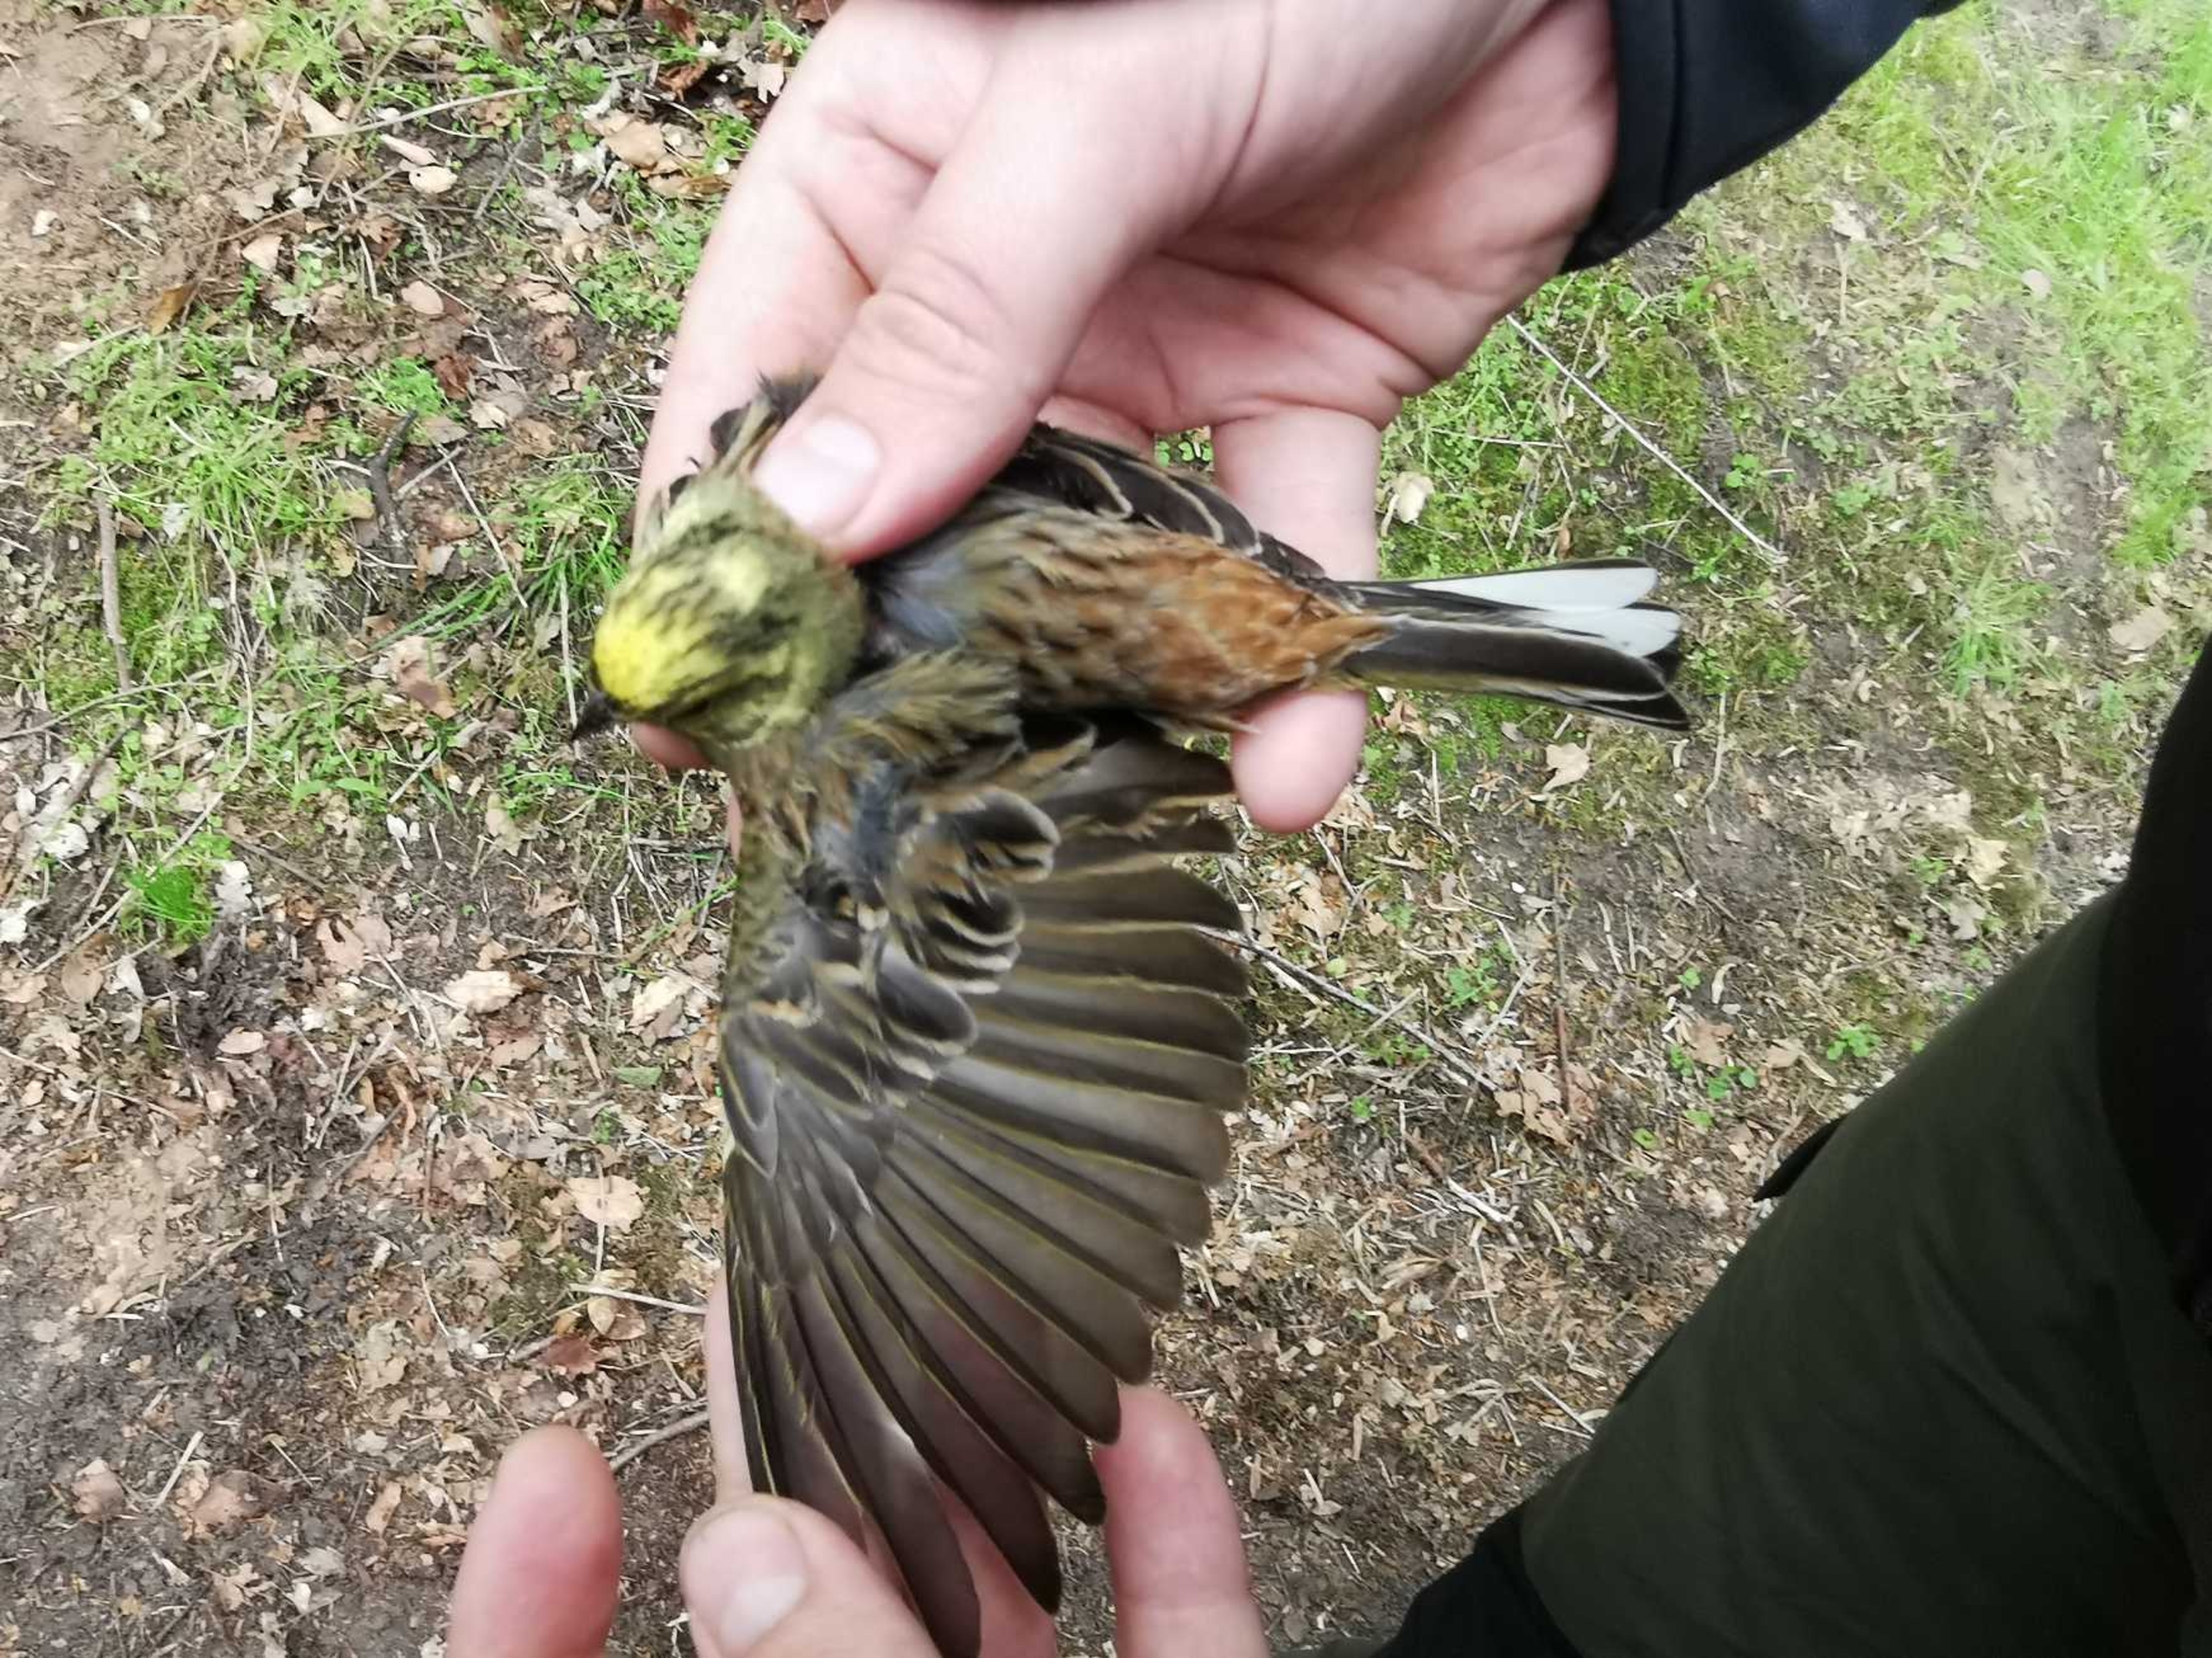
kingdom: Animalia
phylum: Chordata
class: Aves
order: Passeriformes
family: Emberizidae
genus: Emberiza
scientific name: Emberiza citrinella
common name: Gulspurv
